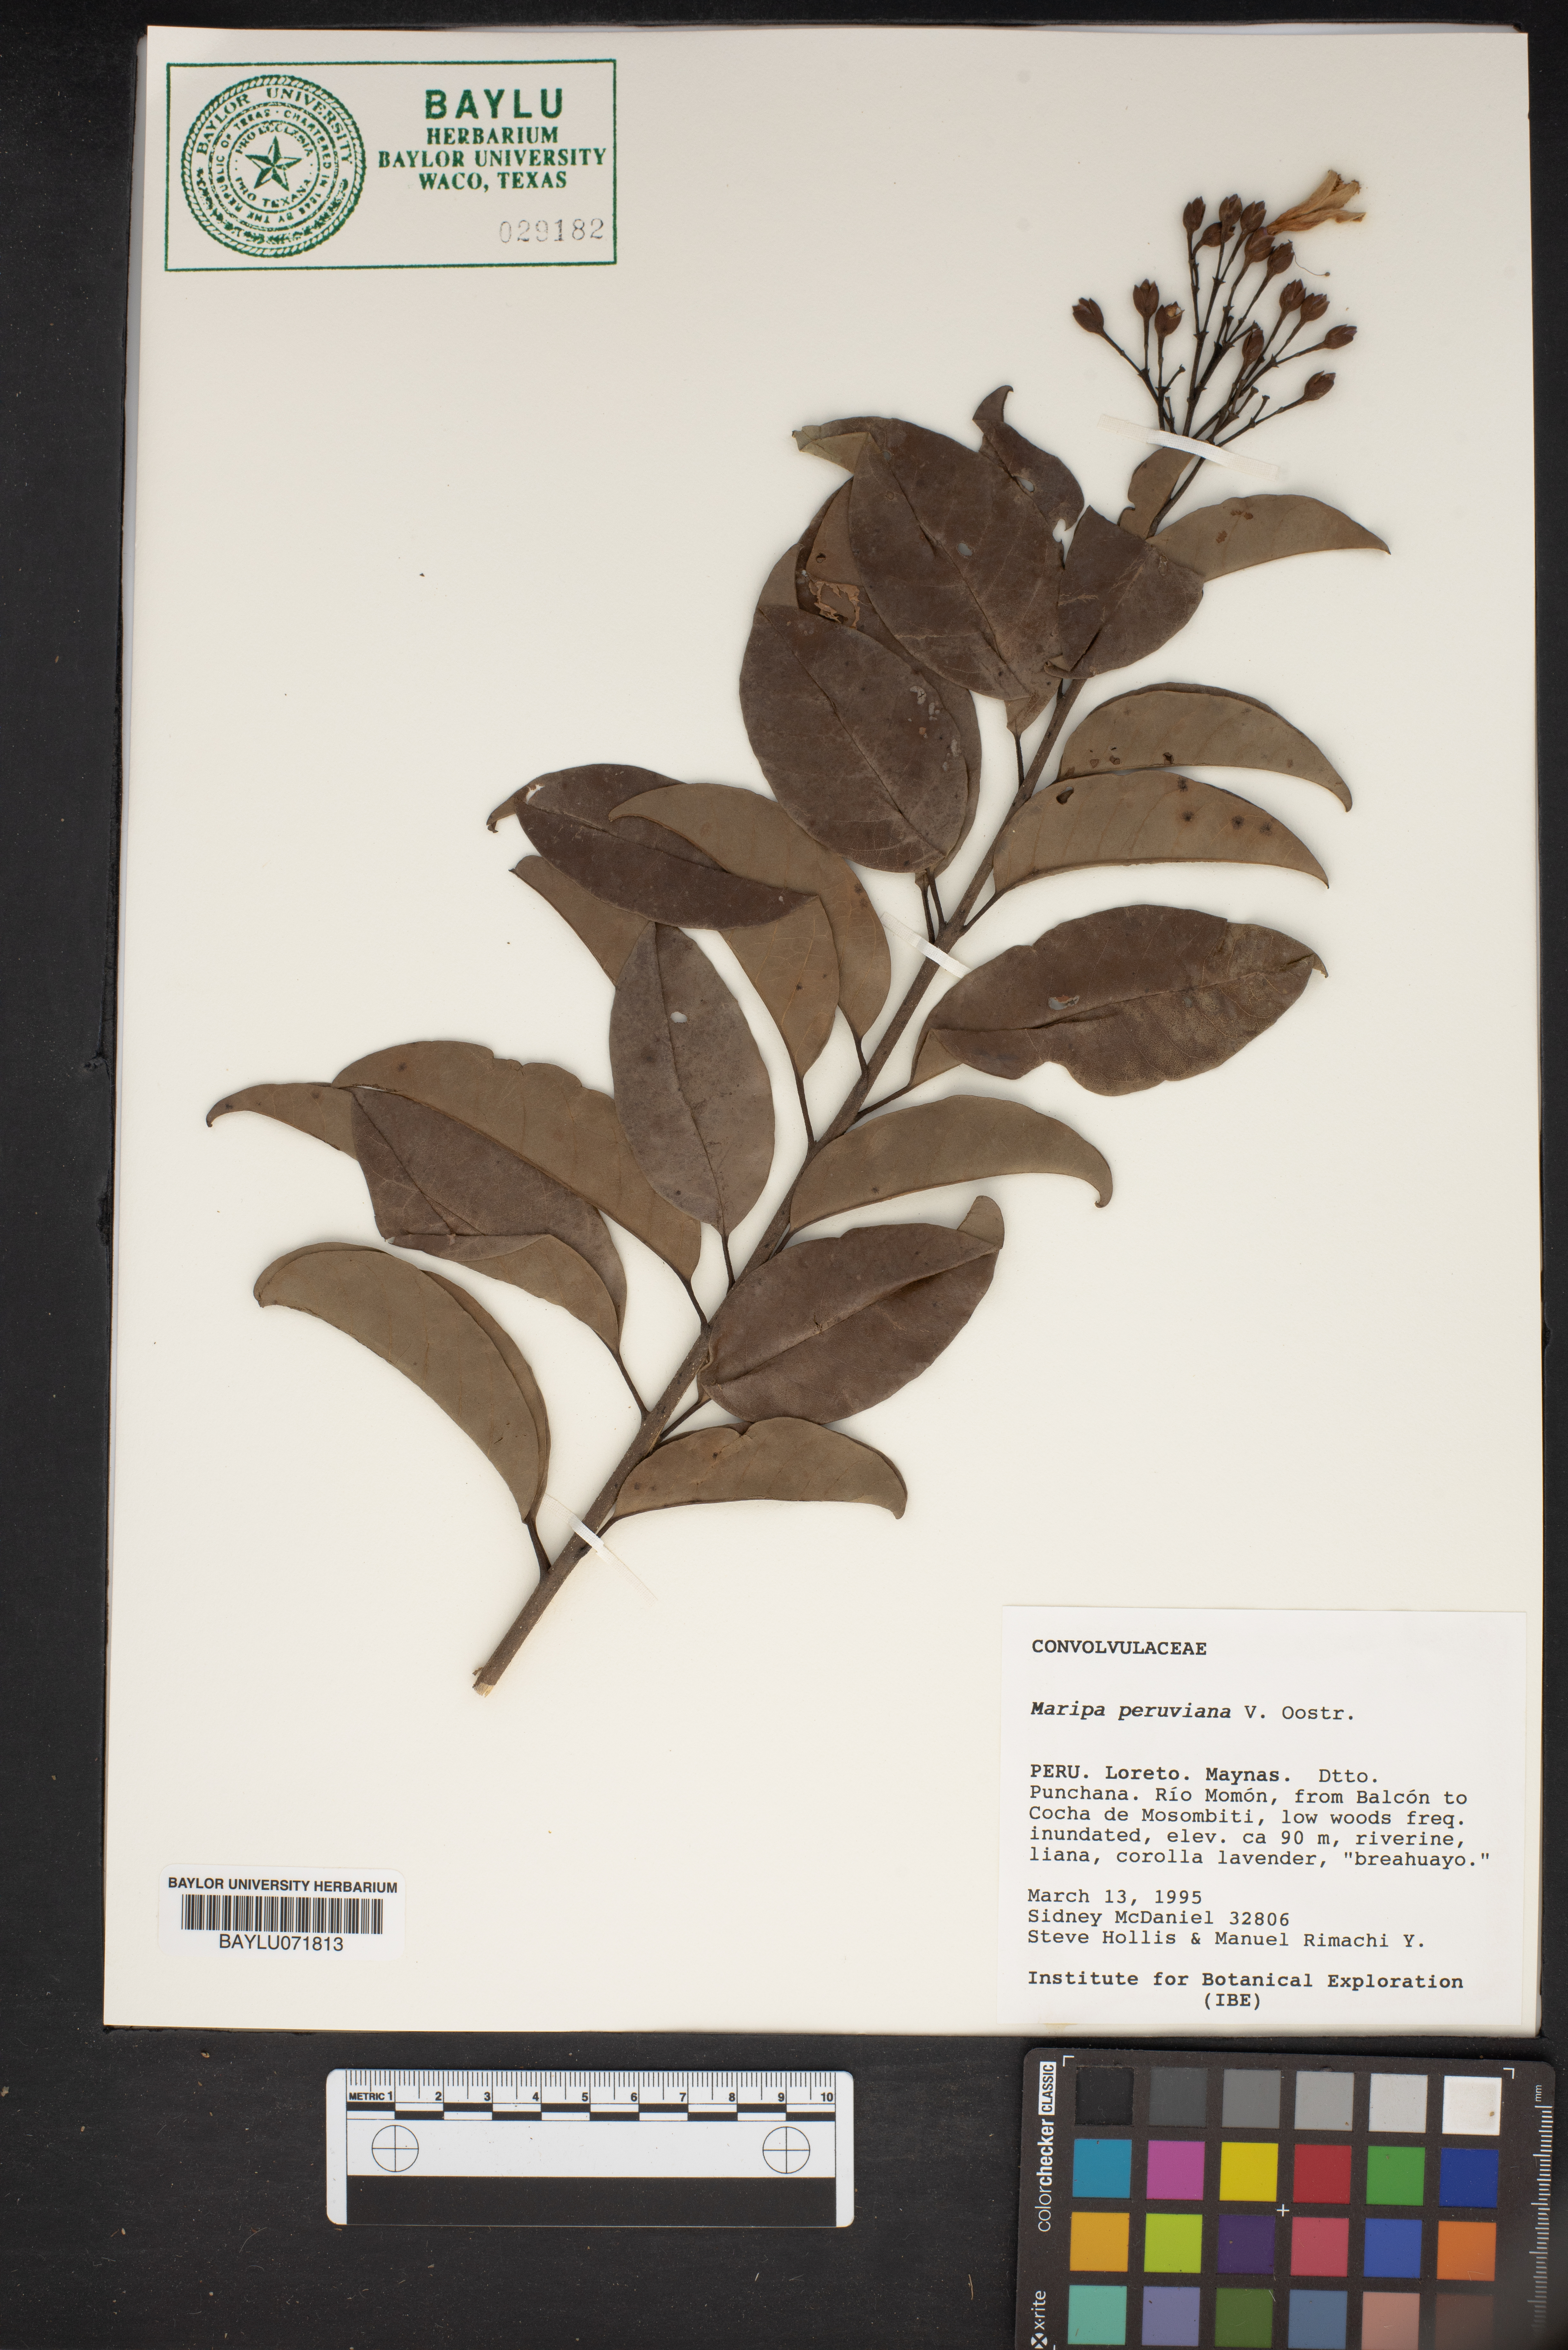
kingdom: Plantae
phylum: Tracheophyta
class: Magnoliopsida
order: Solanales
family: Convolvulaceae
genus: Maripa
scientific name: Maripa peruviana
